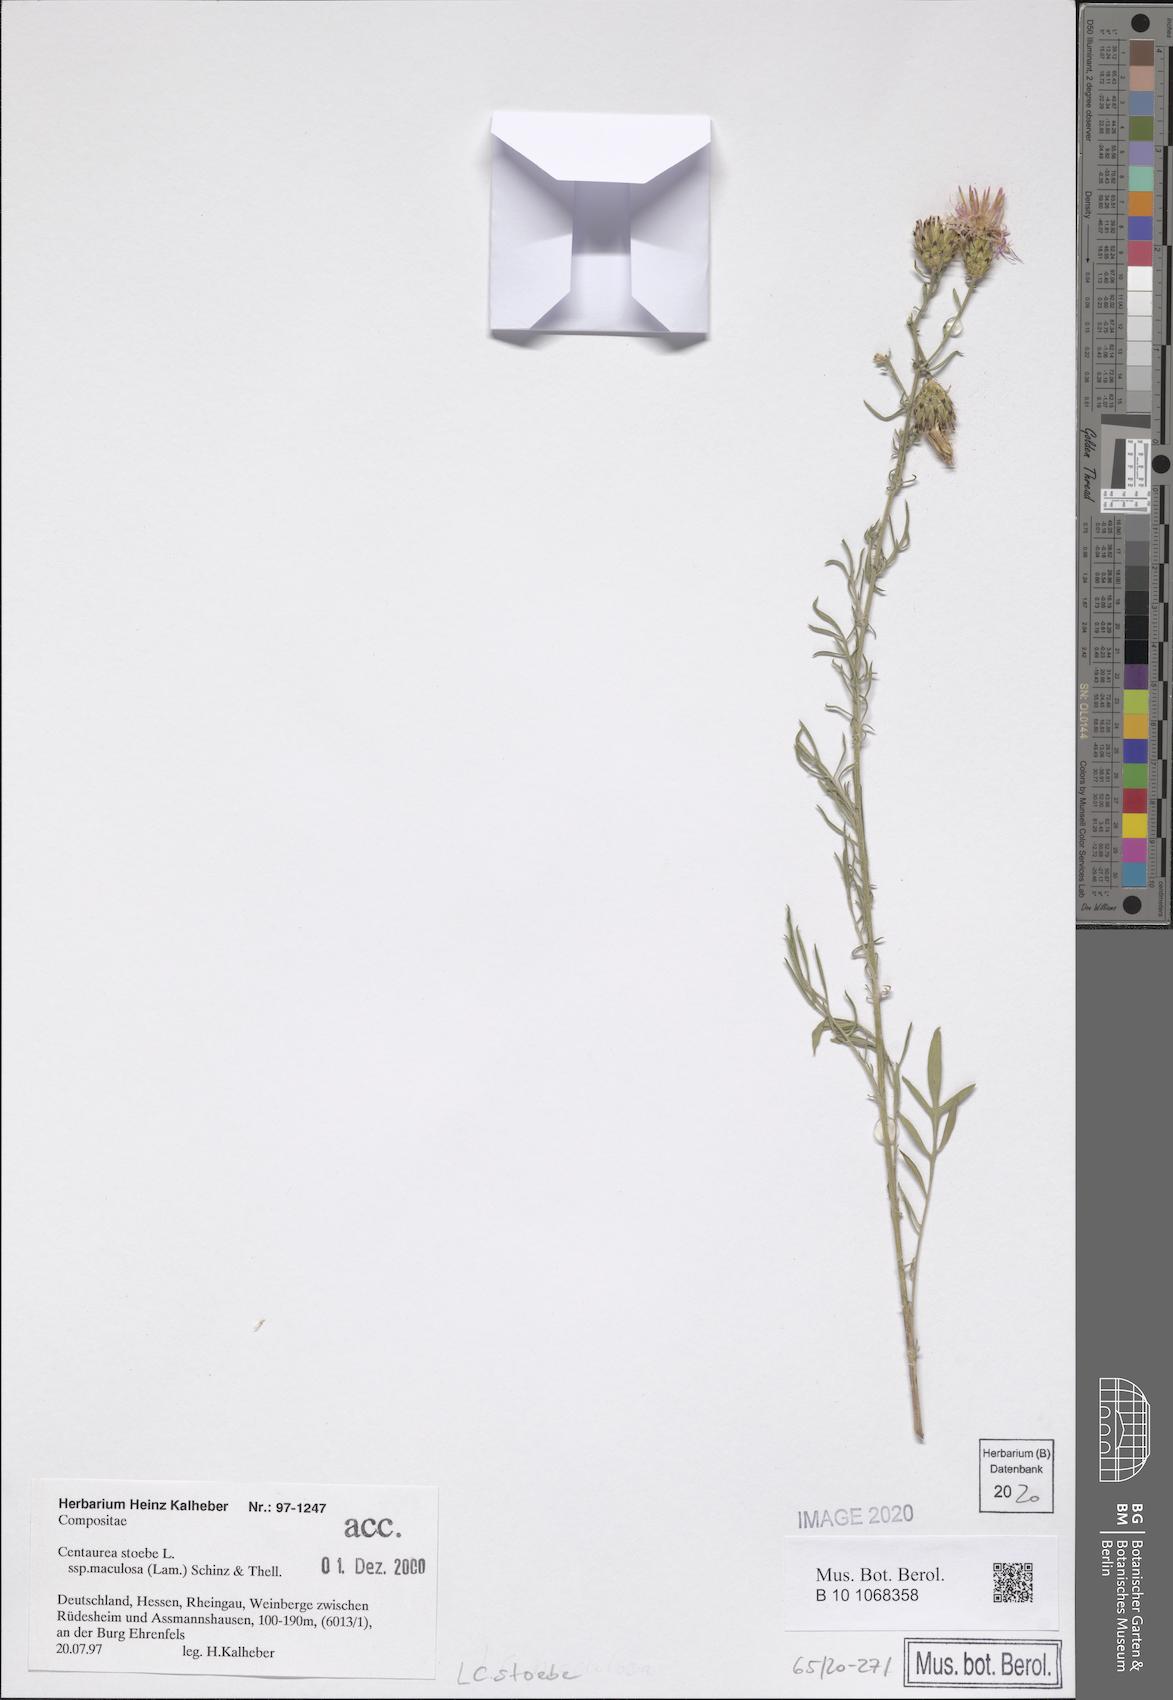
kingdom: Plantae
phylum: Tracheophyta
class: Magnoliopsida
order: Asterales
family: Asteraceae
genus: Centaurea
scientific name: Centaurea stoebe
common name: Spotted knapweed
